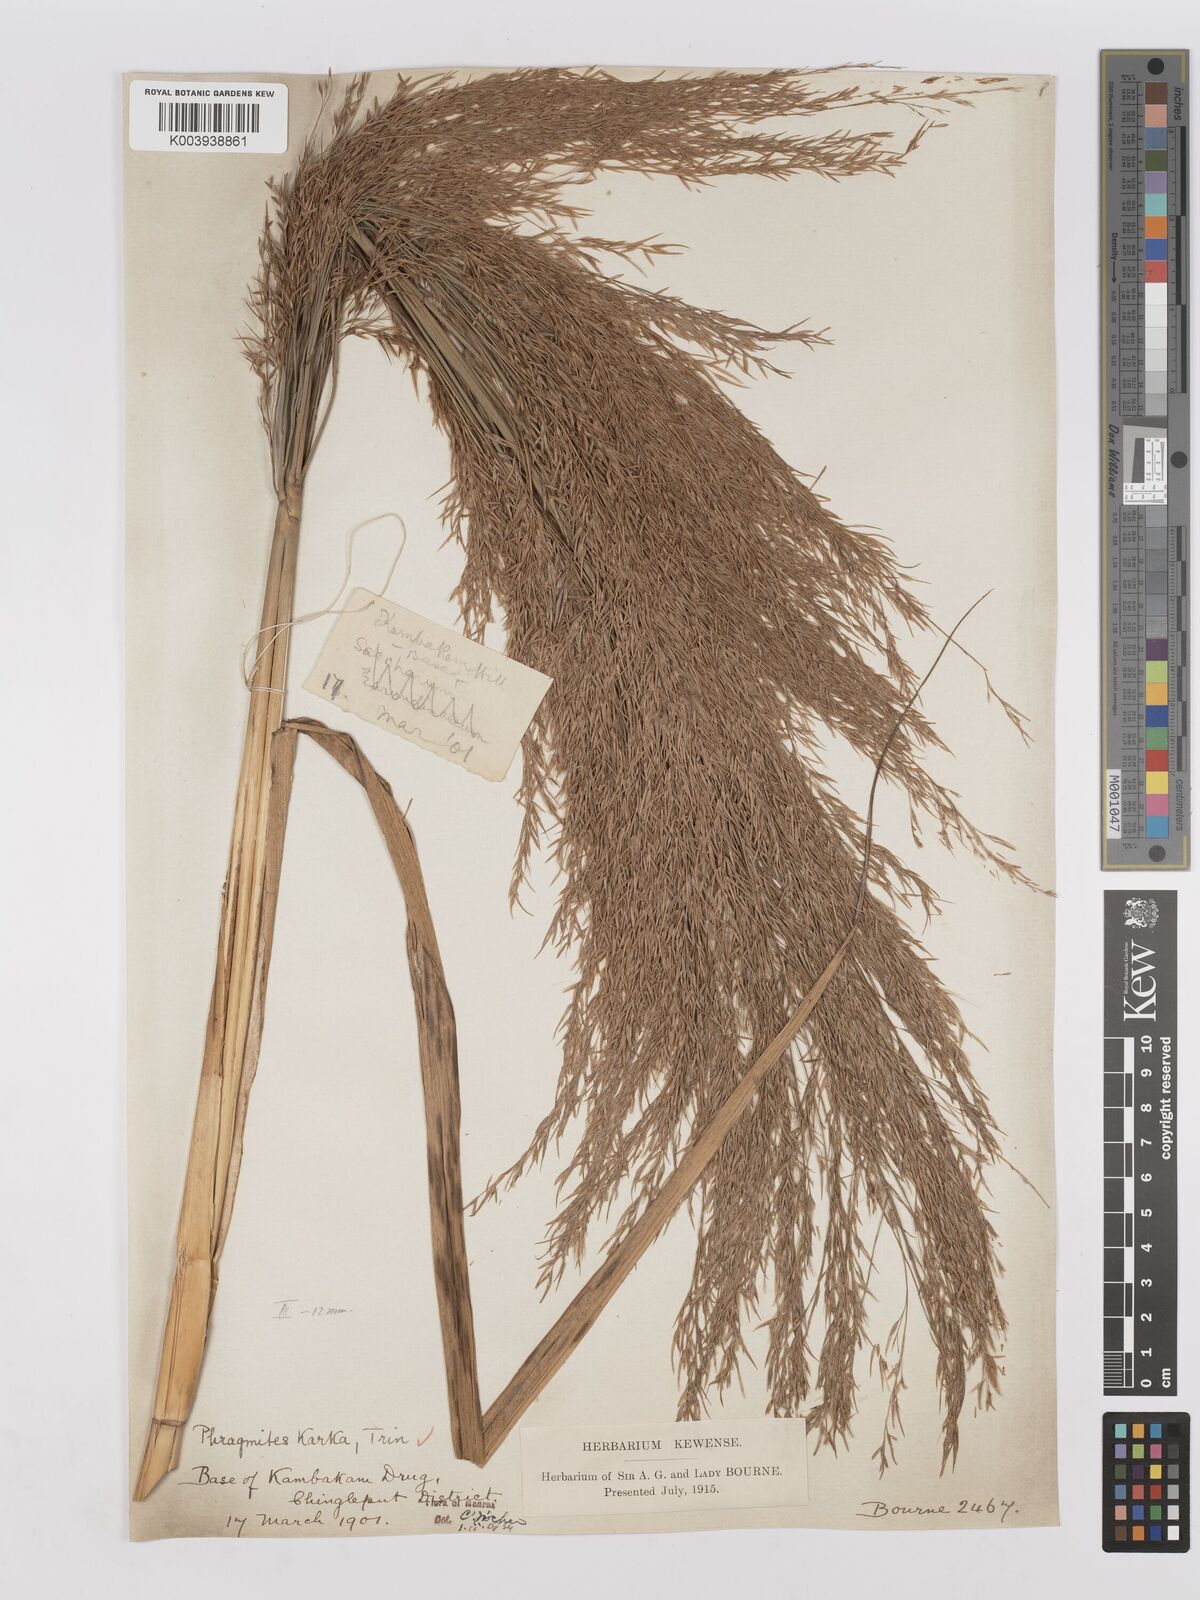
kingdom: Plantae
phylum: Tracheophyta
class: Liliopsida
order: Poales
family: Poaceae
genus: Phragmites
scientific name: Phragmites karka
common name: Tropical reed
